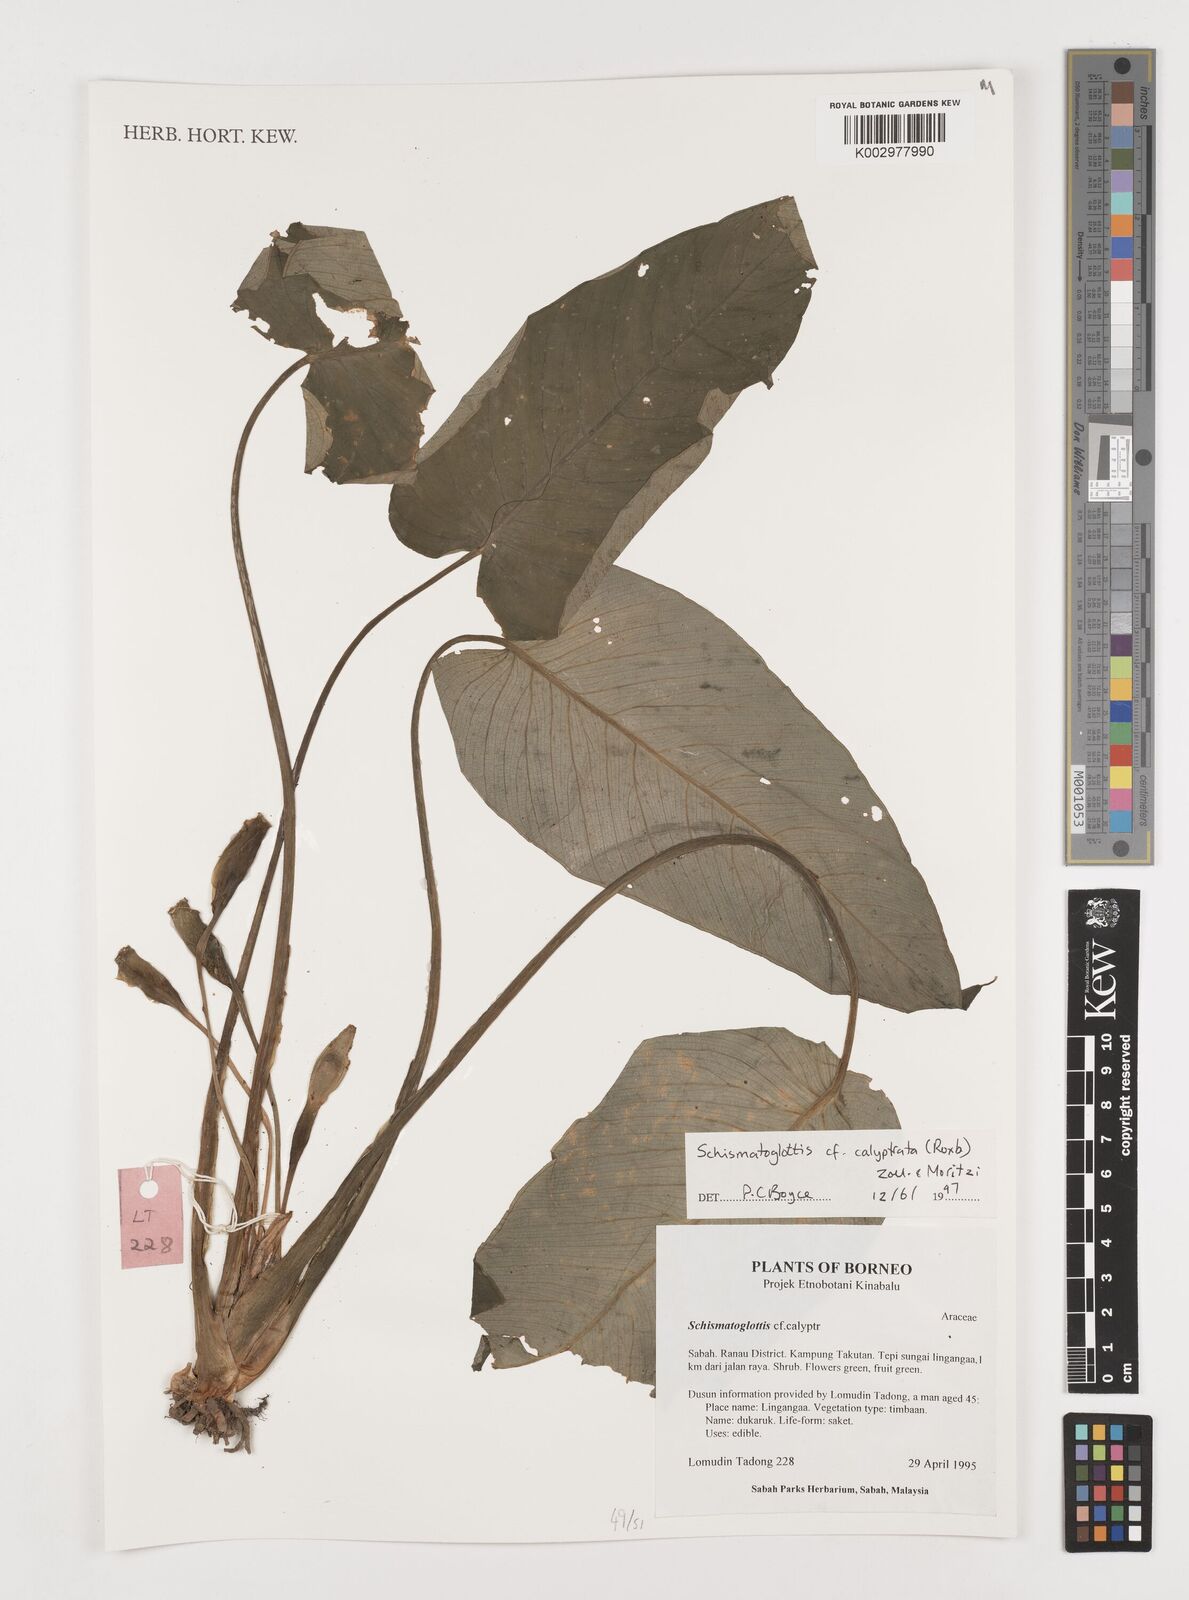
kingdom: Plantae
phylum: Tracheophyta
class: Liliopsida
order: Alismatales
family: Araceae
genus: Schismatoglottis
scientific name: Schismatoglottis calyptrata
